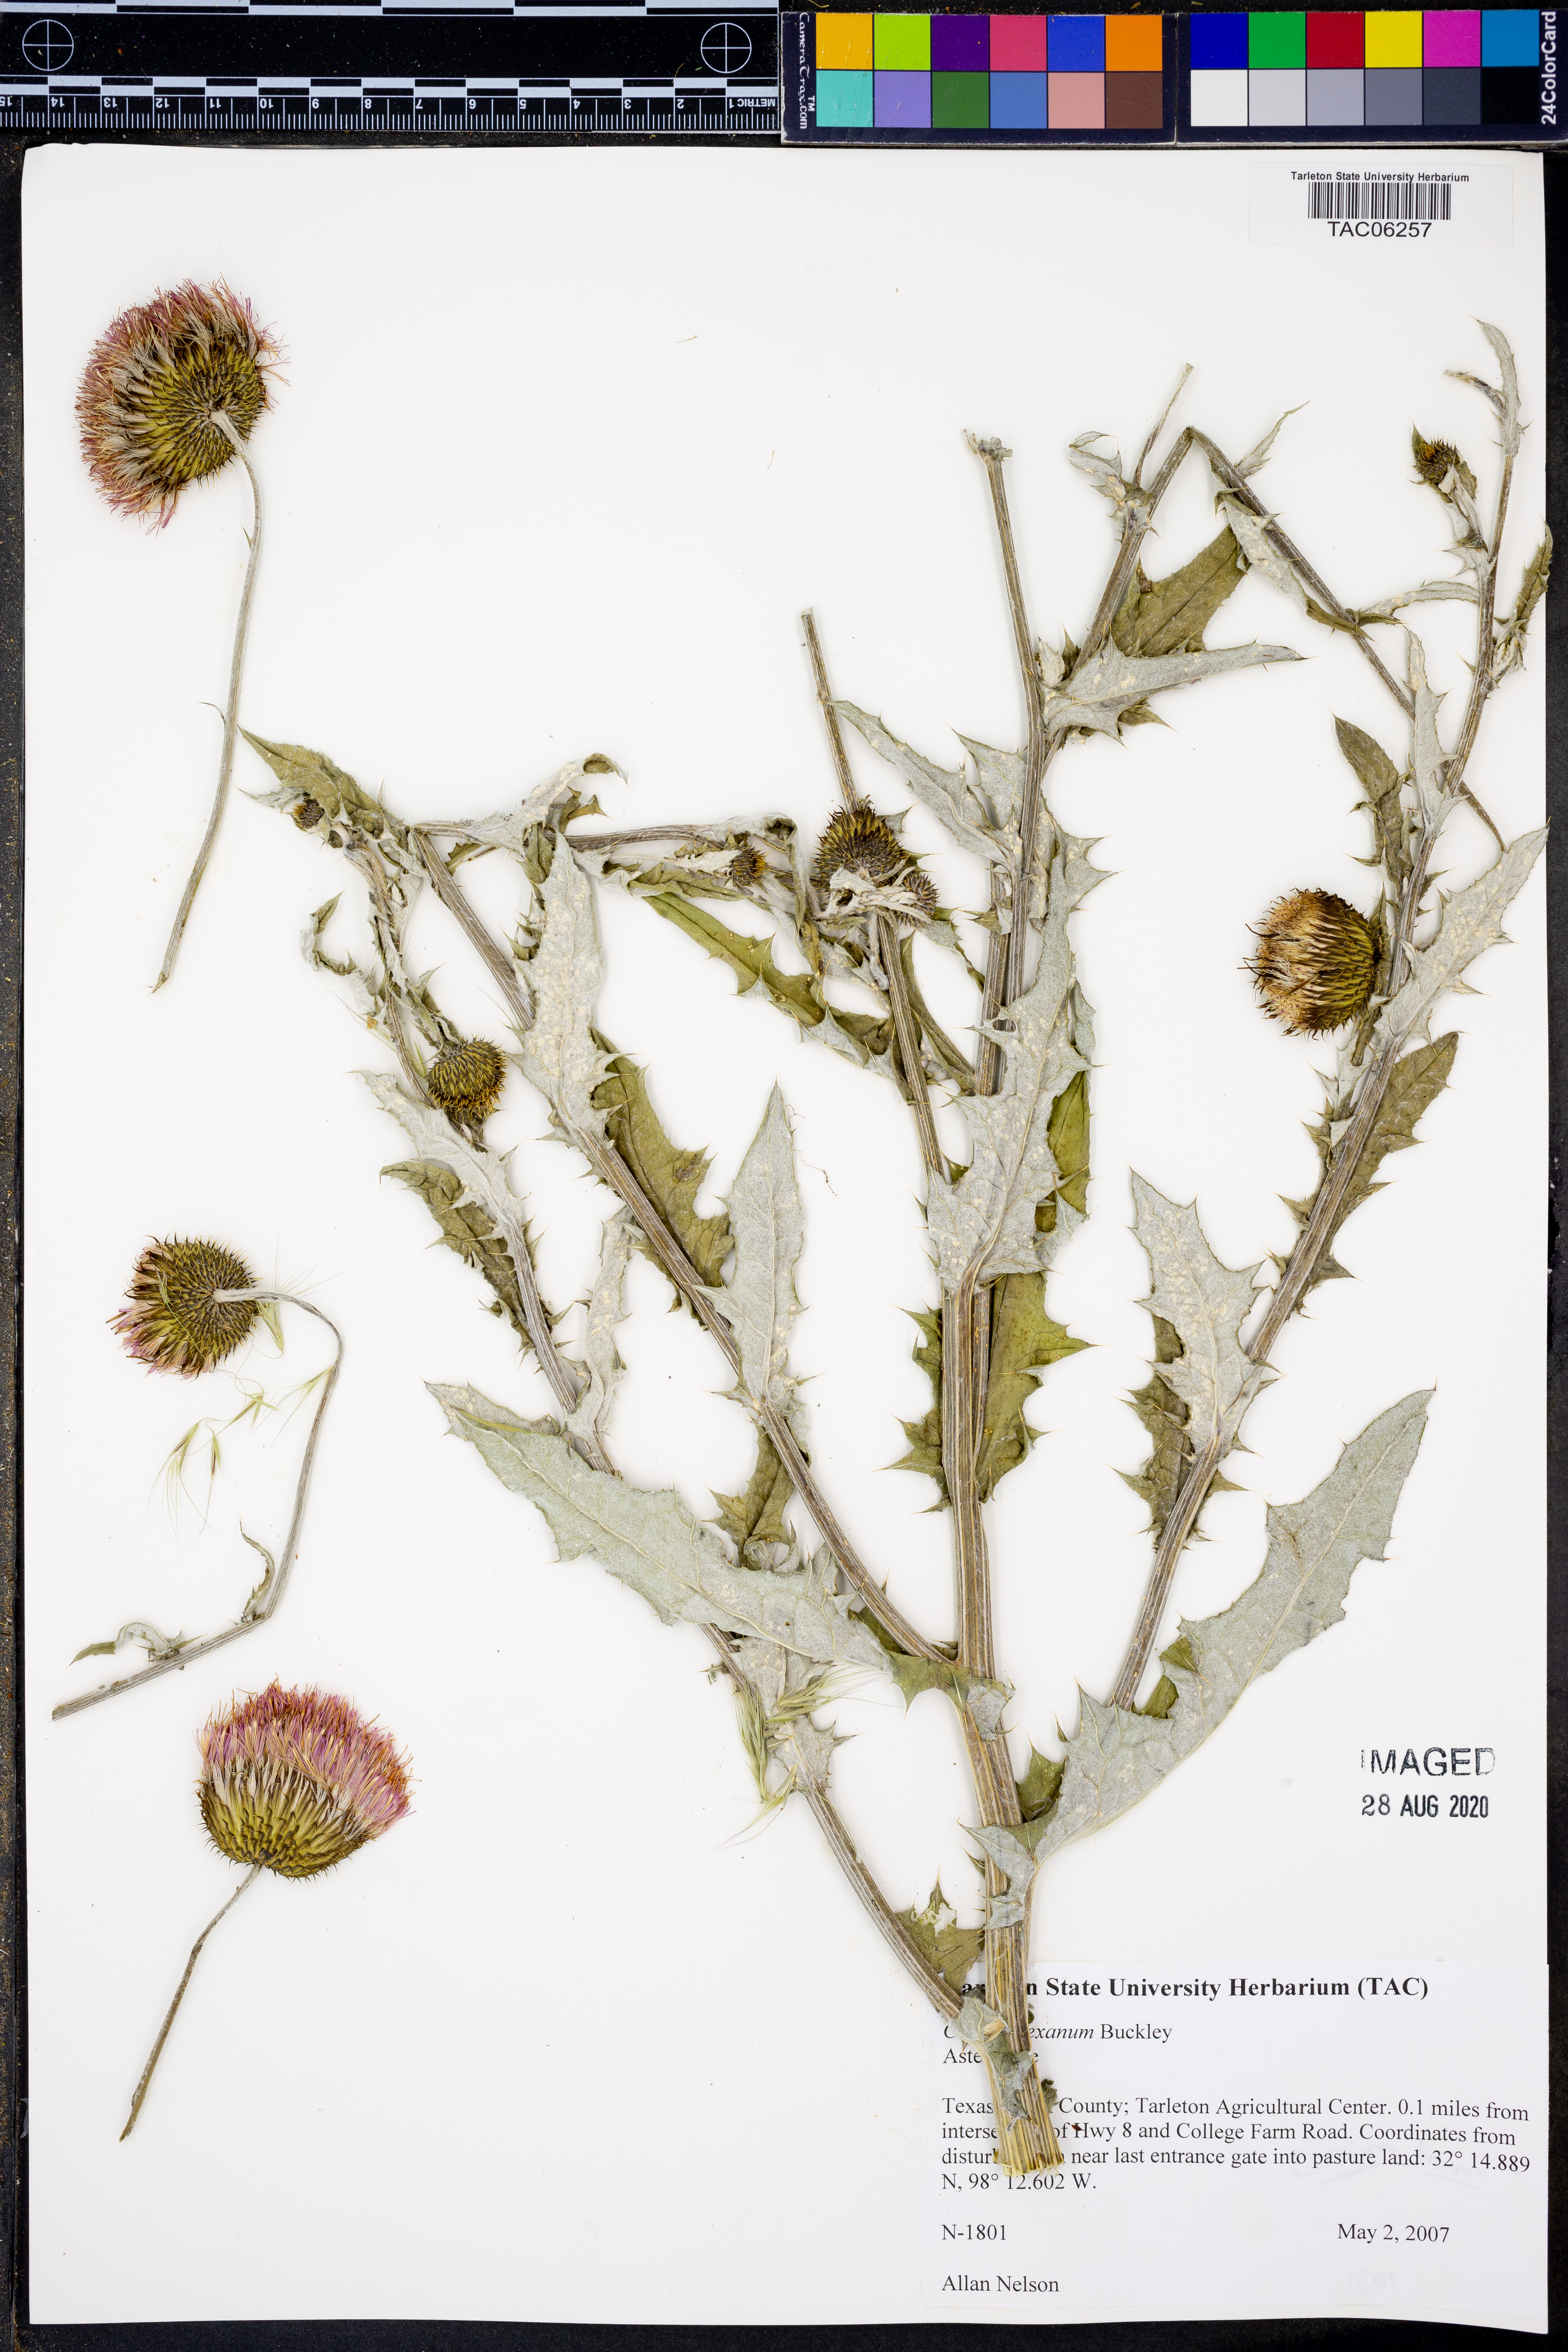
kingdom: Plantae
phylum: Tracheophyta
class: Magnoliopsida
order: Asterales
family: Asteraceae
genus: Cirsium
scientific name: Cirsium texanum
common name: Texas purple thistle
